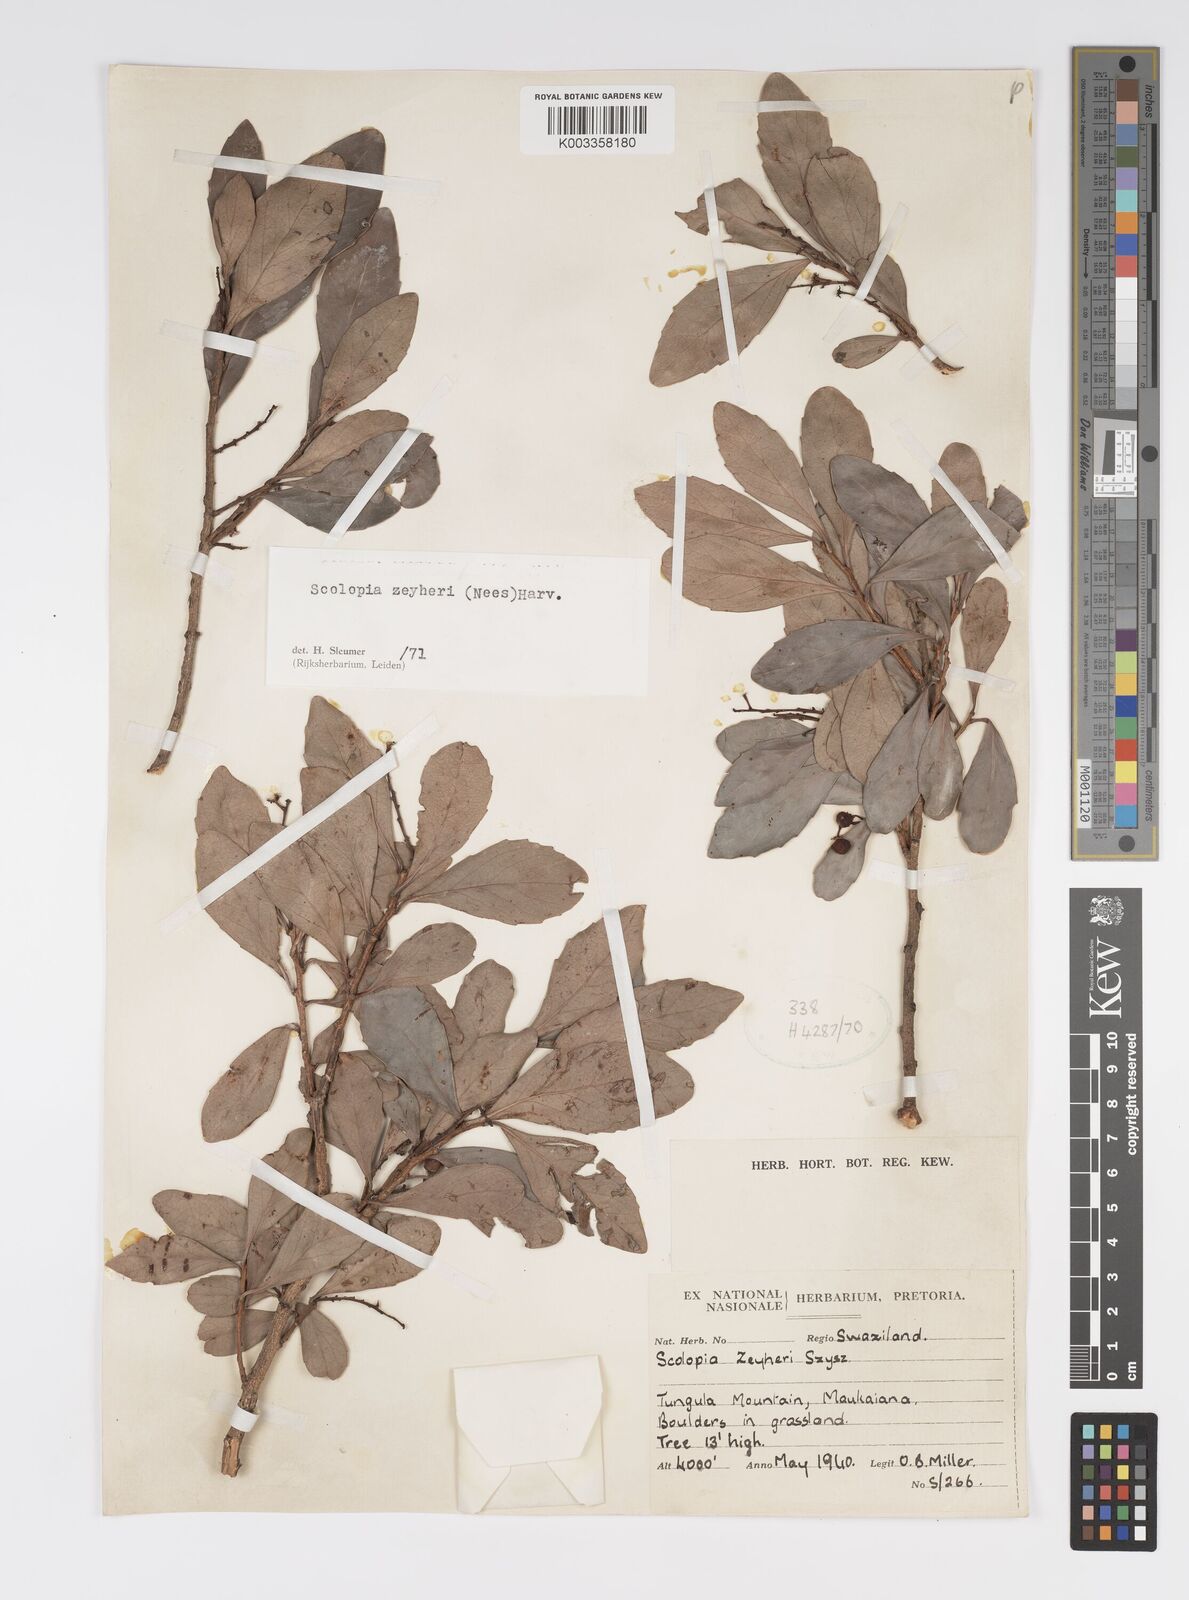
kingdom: Plantae
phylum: Tracheophyta
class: Magnoliopsida
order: Malpighiales
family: Salicaceae
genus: Scolopia
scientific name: Scolopia zeyheri
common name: Thorn pear
